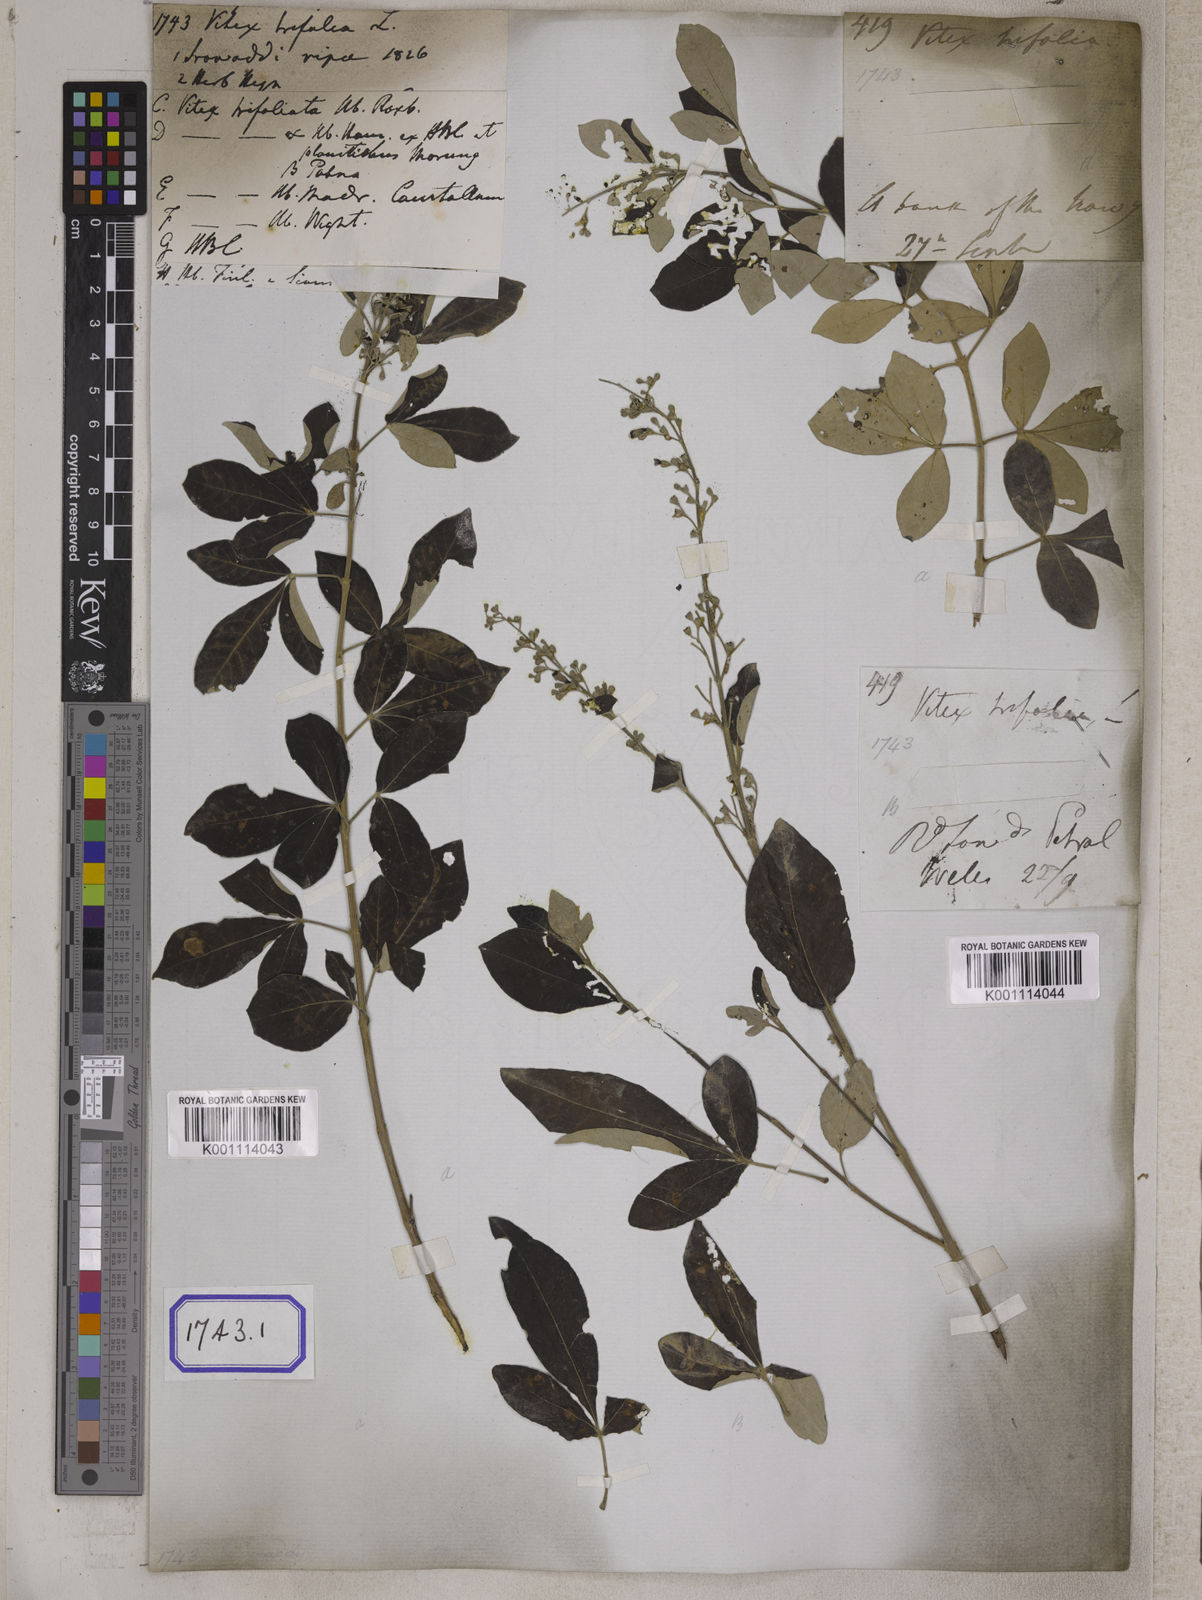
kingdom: Plantae
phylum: Tracheophyta
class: Magnoliopsida
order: Lamiales
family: Lamiaceae
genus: Vitex
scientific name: Vitex trifolia
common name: Simpleleaf chastetree
